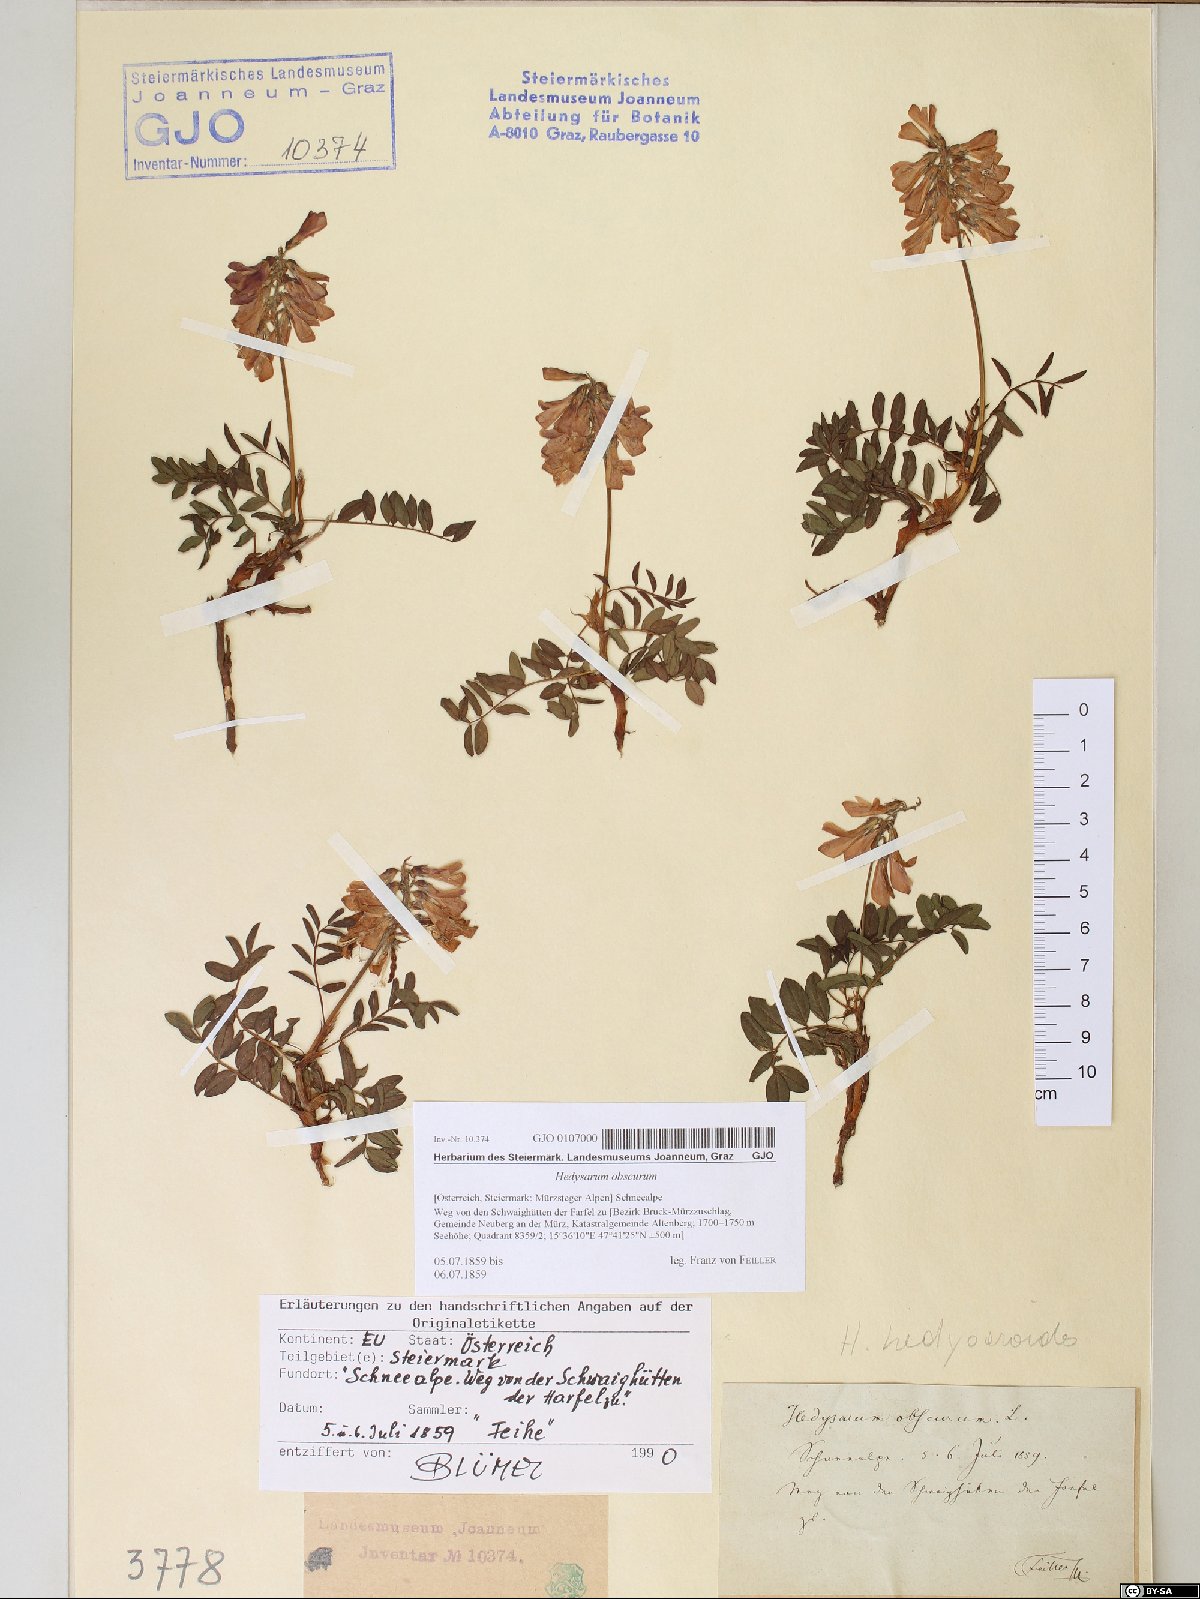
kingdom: Plantae
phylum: Tracheophyta
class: Magnoliopsida
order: Fabales
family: Fabaceae
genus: Hedysarum
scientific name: Hedysarum hedysaroides
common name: Alpine french-honeysuckle
